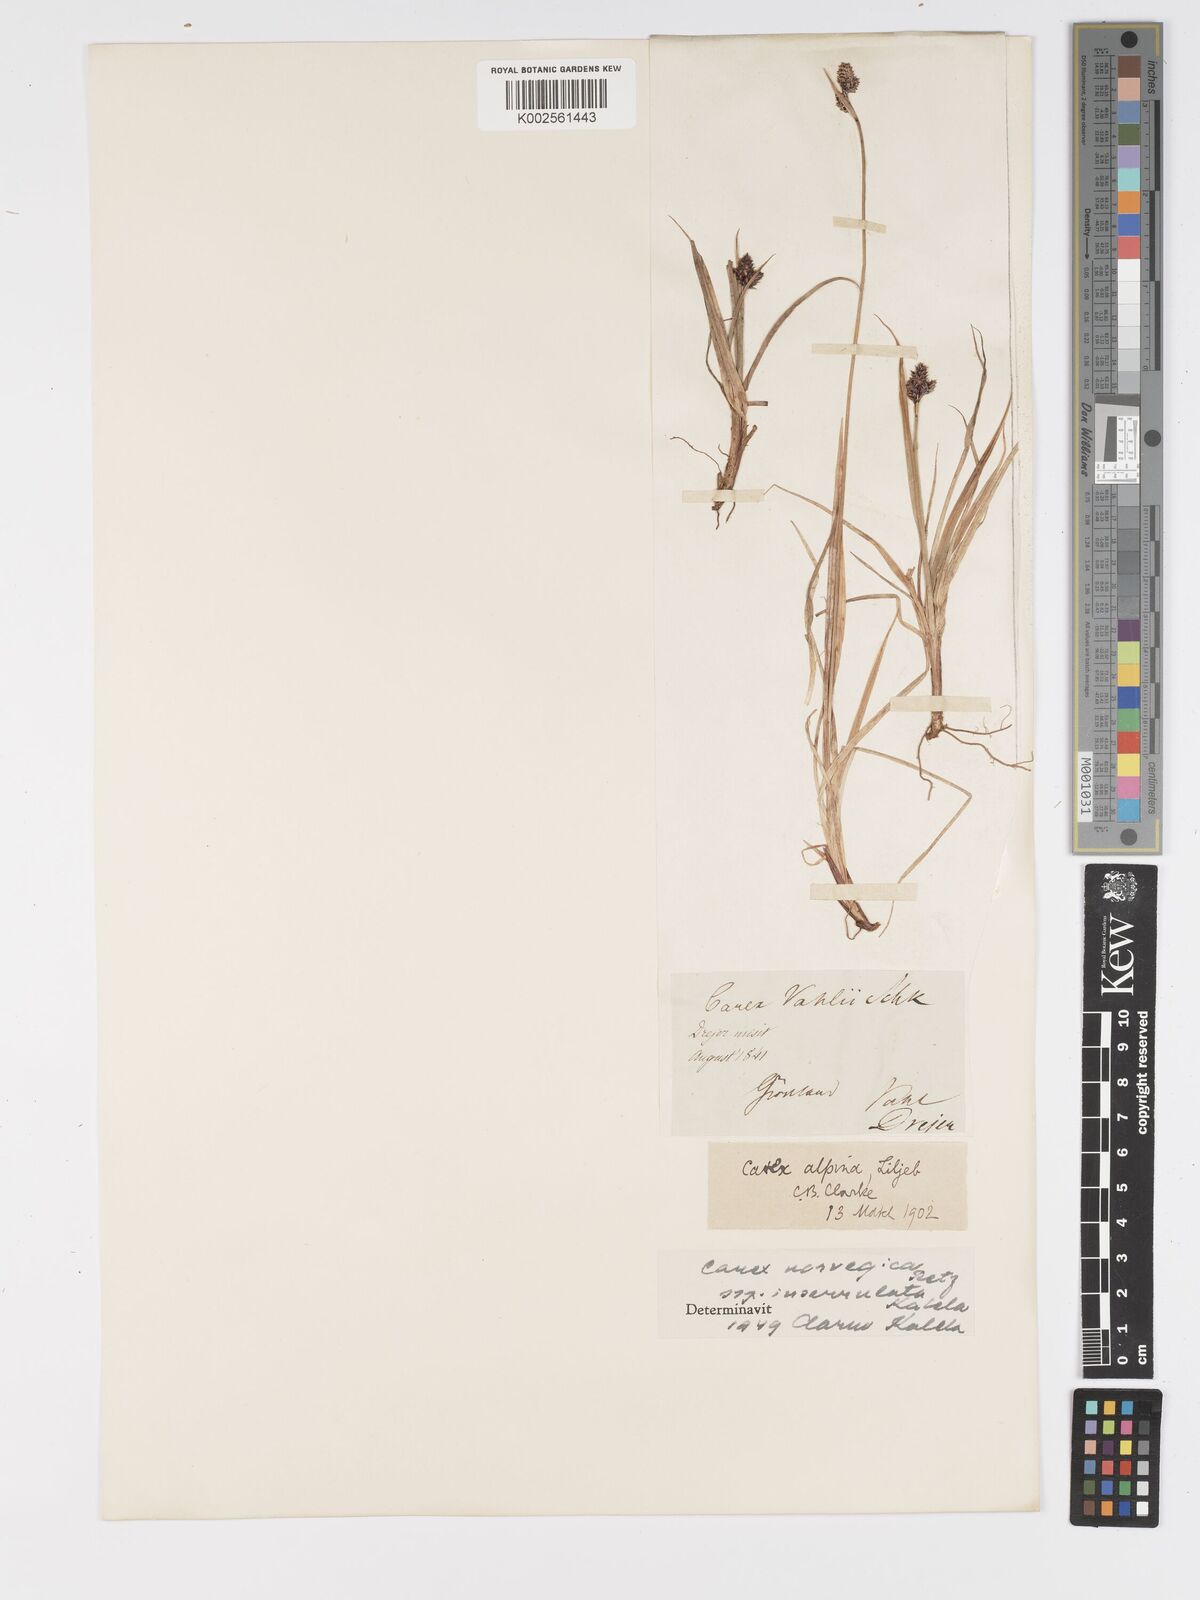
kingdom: Plantae
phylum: Tracheophyta
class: Liliopsida
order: Poales
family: Cyperaceae
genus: Carex
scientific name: Carex norvegica
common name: Close-headed alpine-sedge
